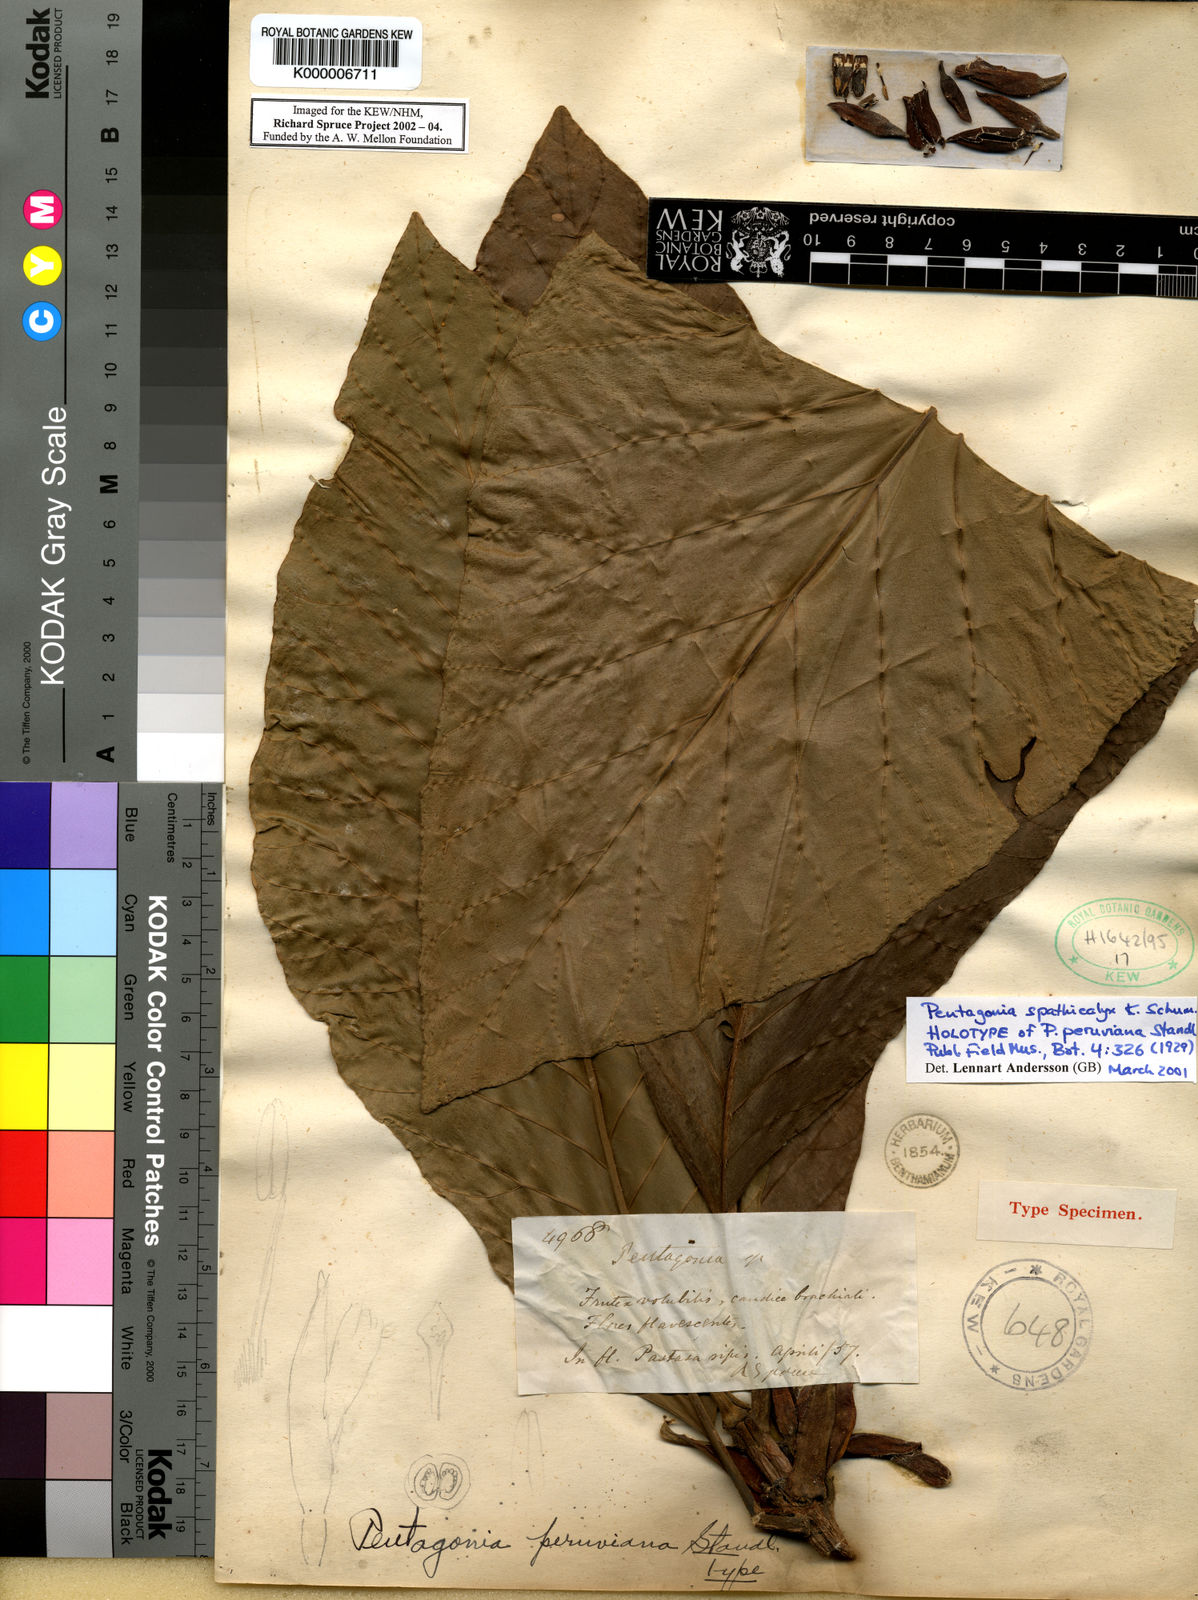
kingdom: Plantae
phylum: Tracheophyta
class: Magnoliopsida
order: Gentianales
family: Rubiaceae
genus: Pentagonia
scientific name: Pentagonia spathicalyx
